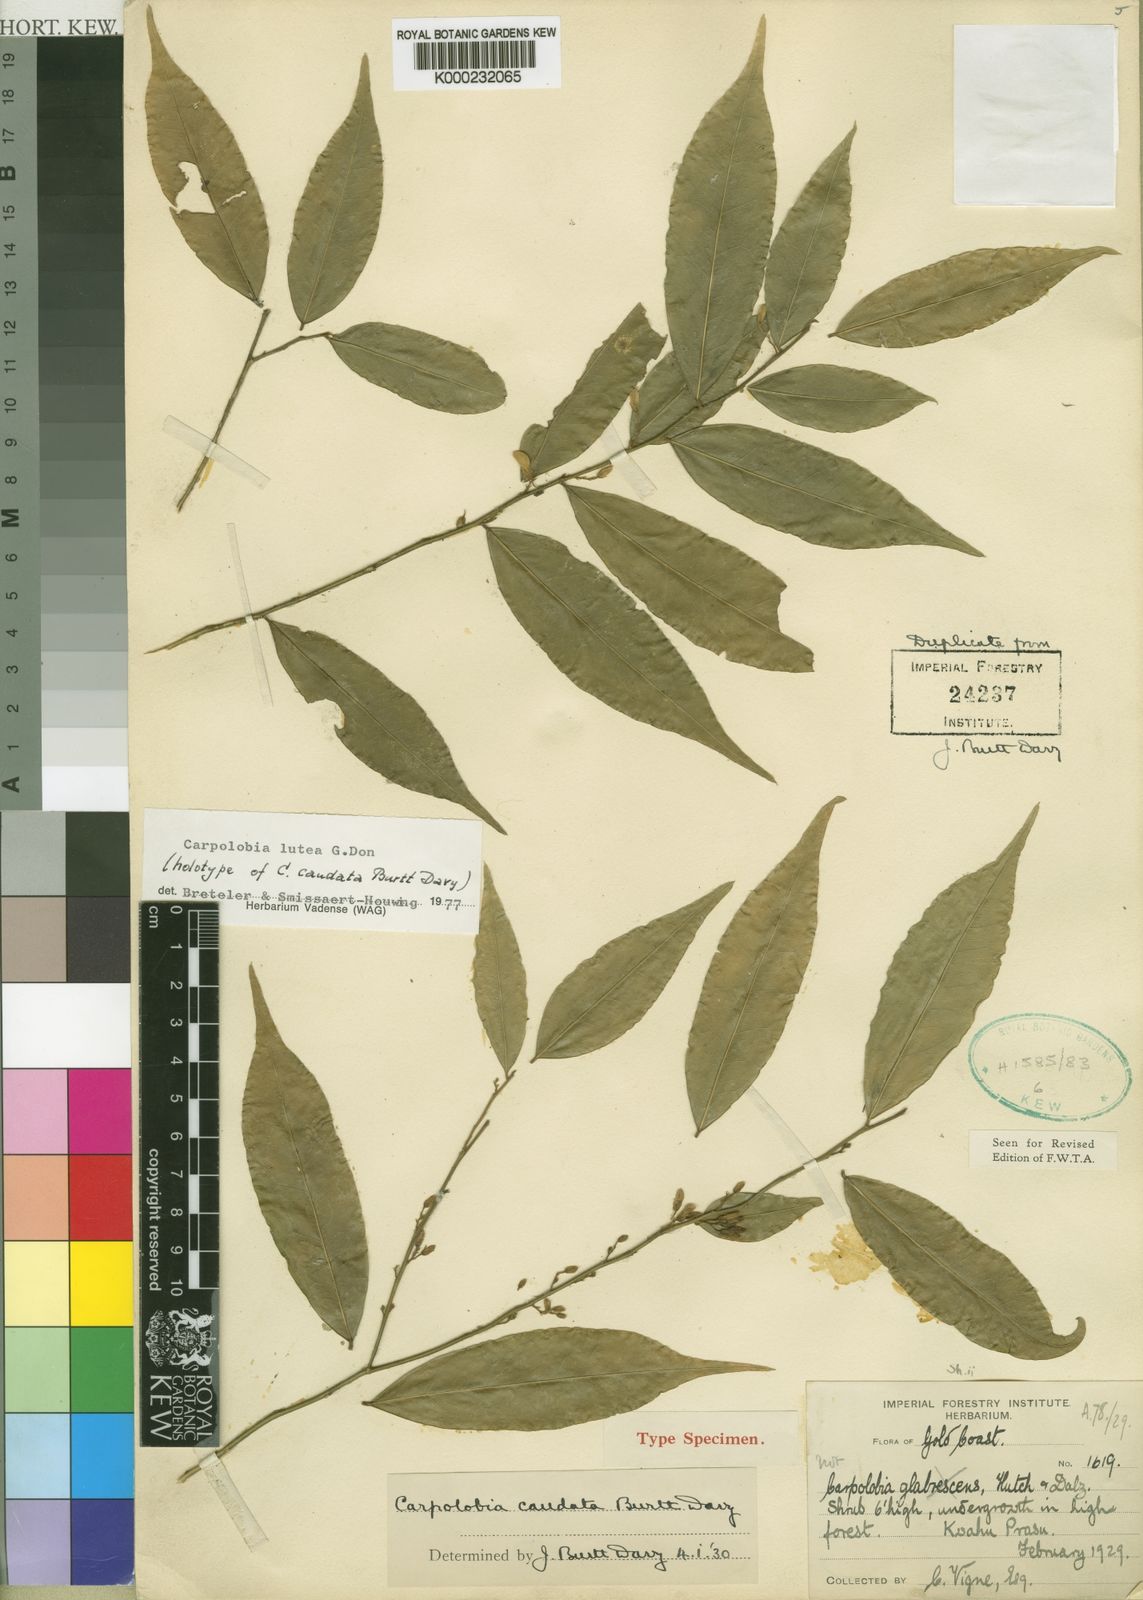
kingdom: Plantae
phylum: Tracheophyta
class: Magnoliopsida
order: Fabales
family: Polygalaceae
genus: Carpolobia
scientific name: Carpolobia lutea
